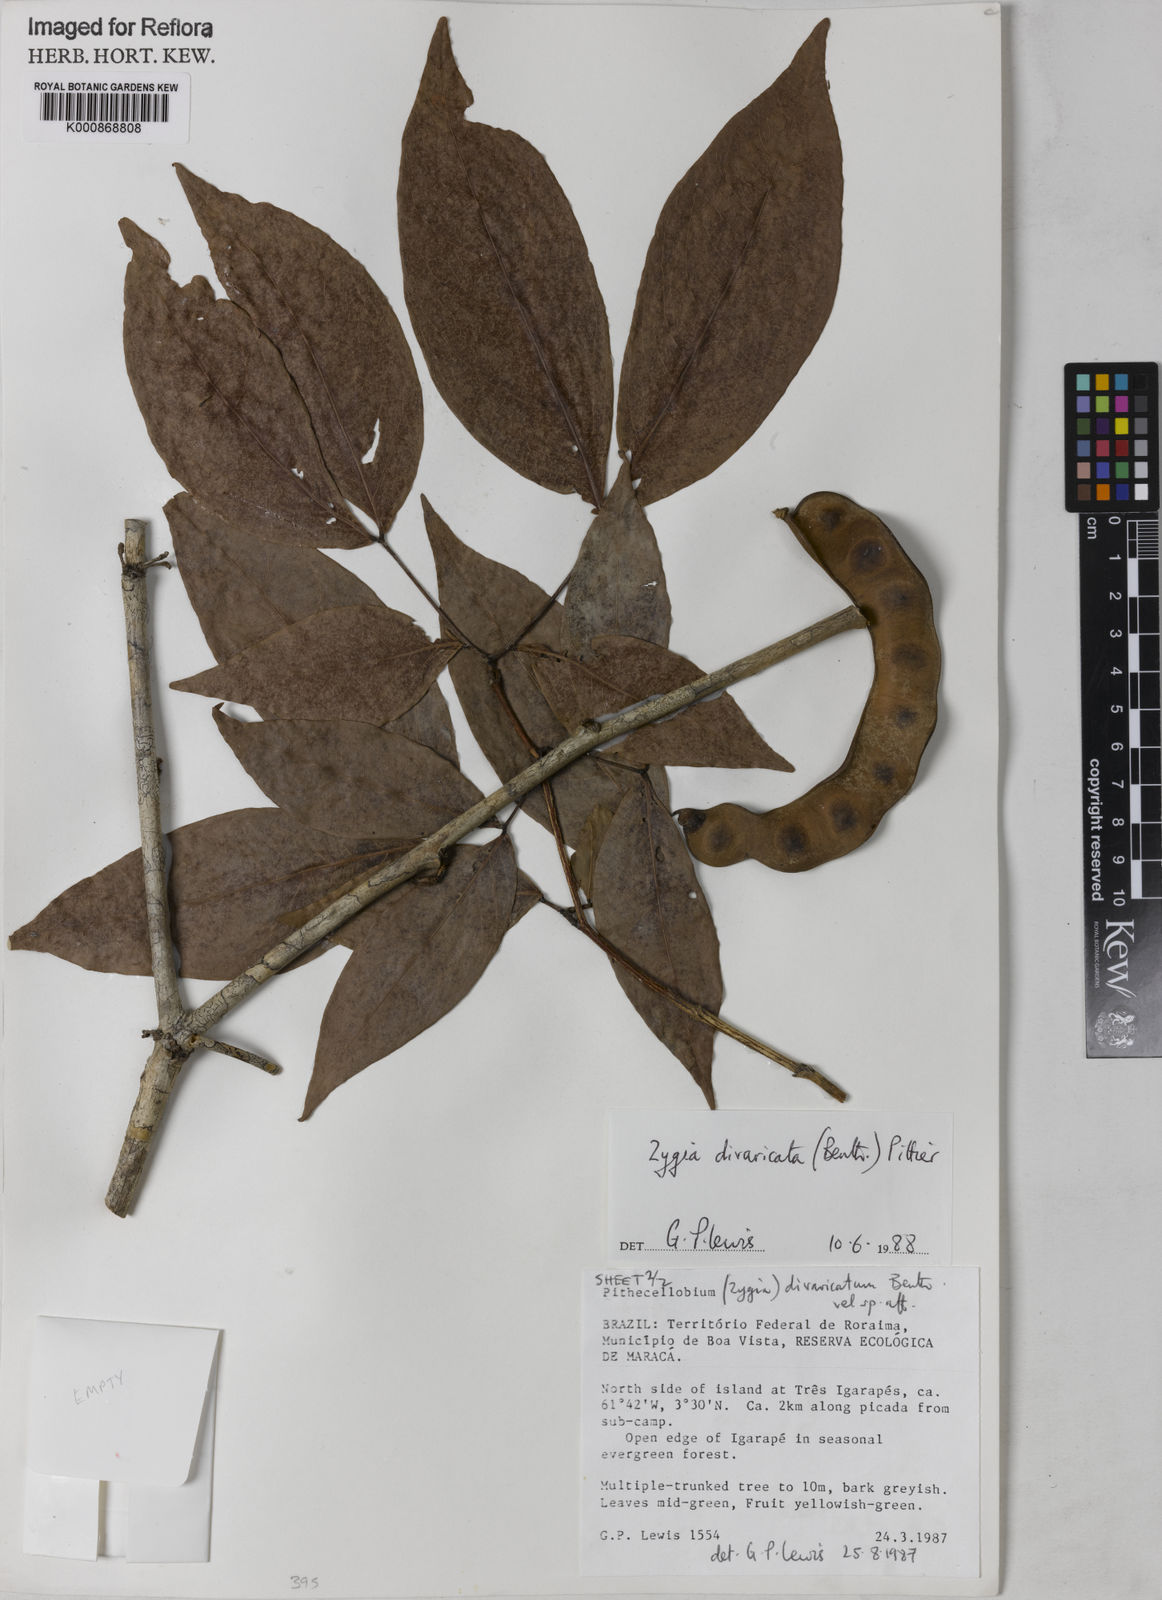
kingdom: Plantae
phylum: Tracheophyta
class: Magnoliopsida
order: Fabales
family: Fabaceae
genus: Zygia
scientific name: Zygia cataractae
